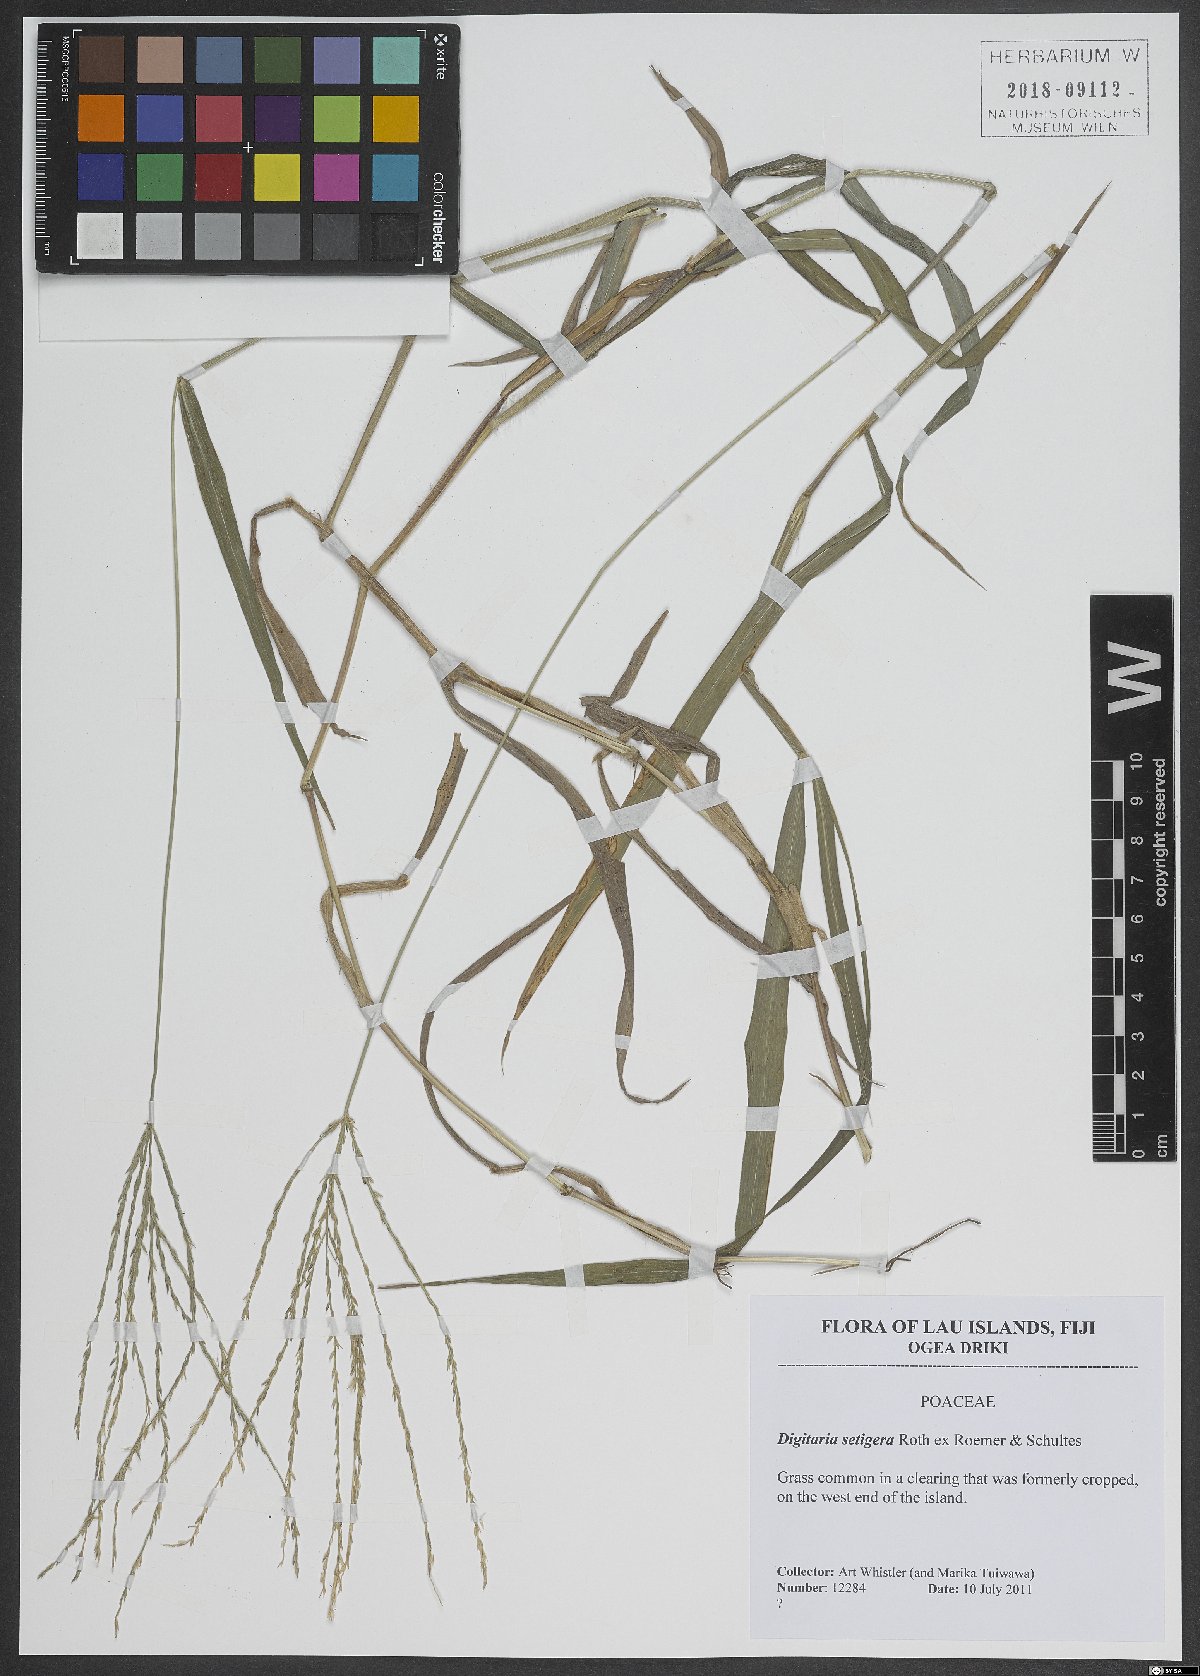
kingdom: Plantae
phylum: Tracheophyta
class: Liliopsida
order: Poales
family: Poaceae
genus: Digitaria
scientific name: Digitaria setigera
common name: East indian crabgrass
